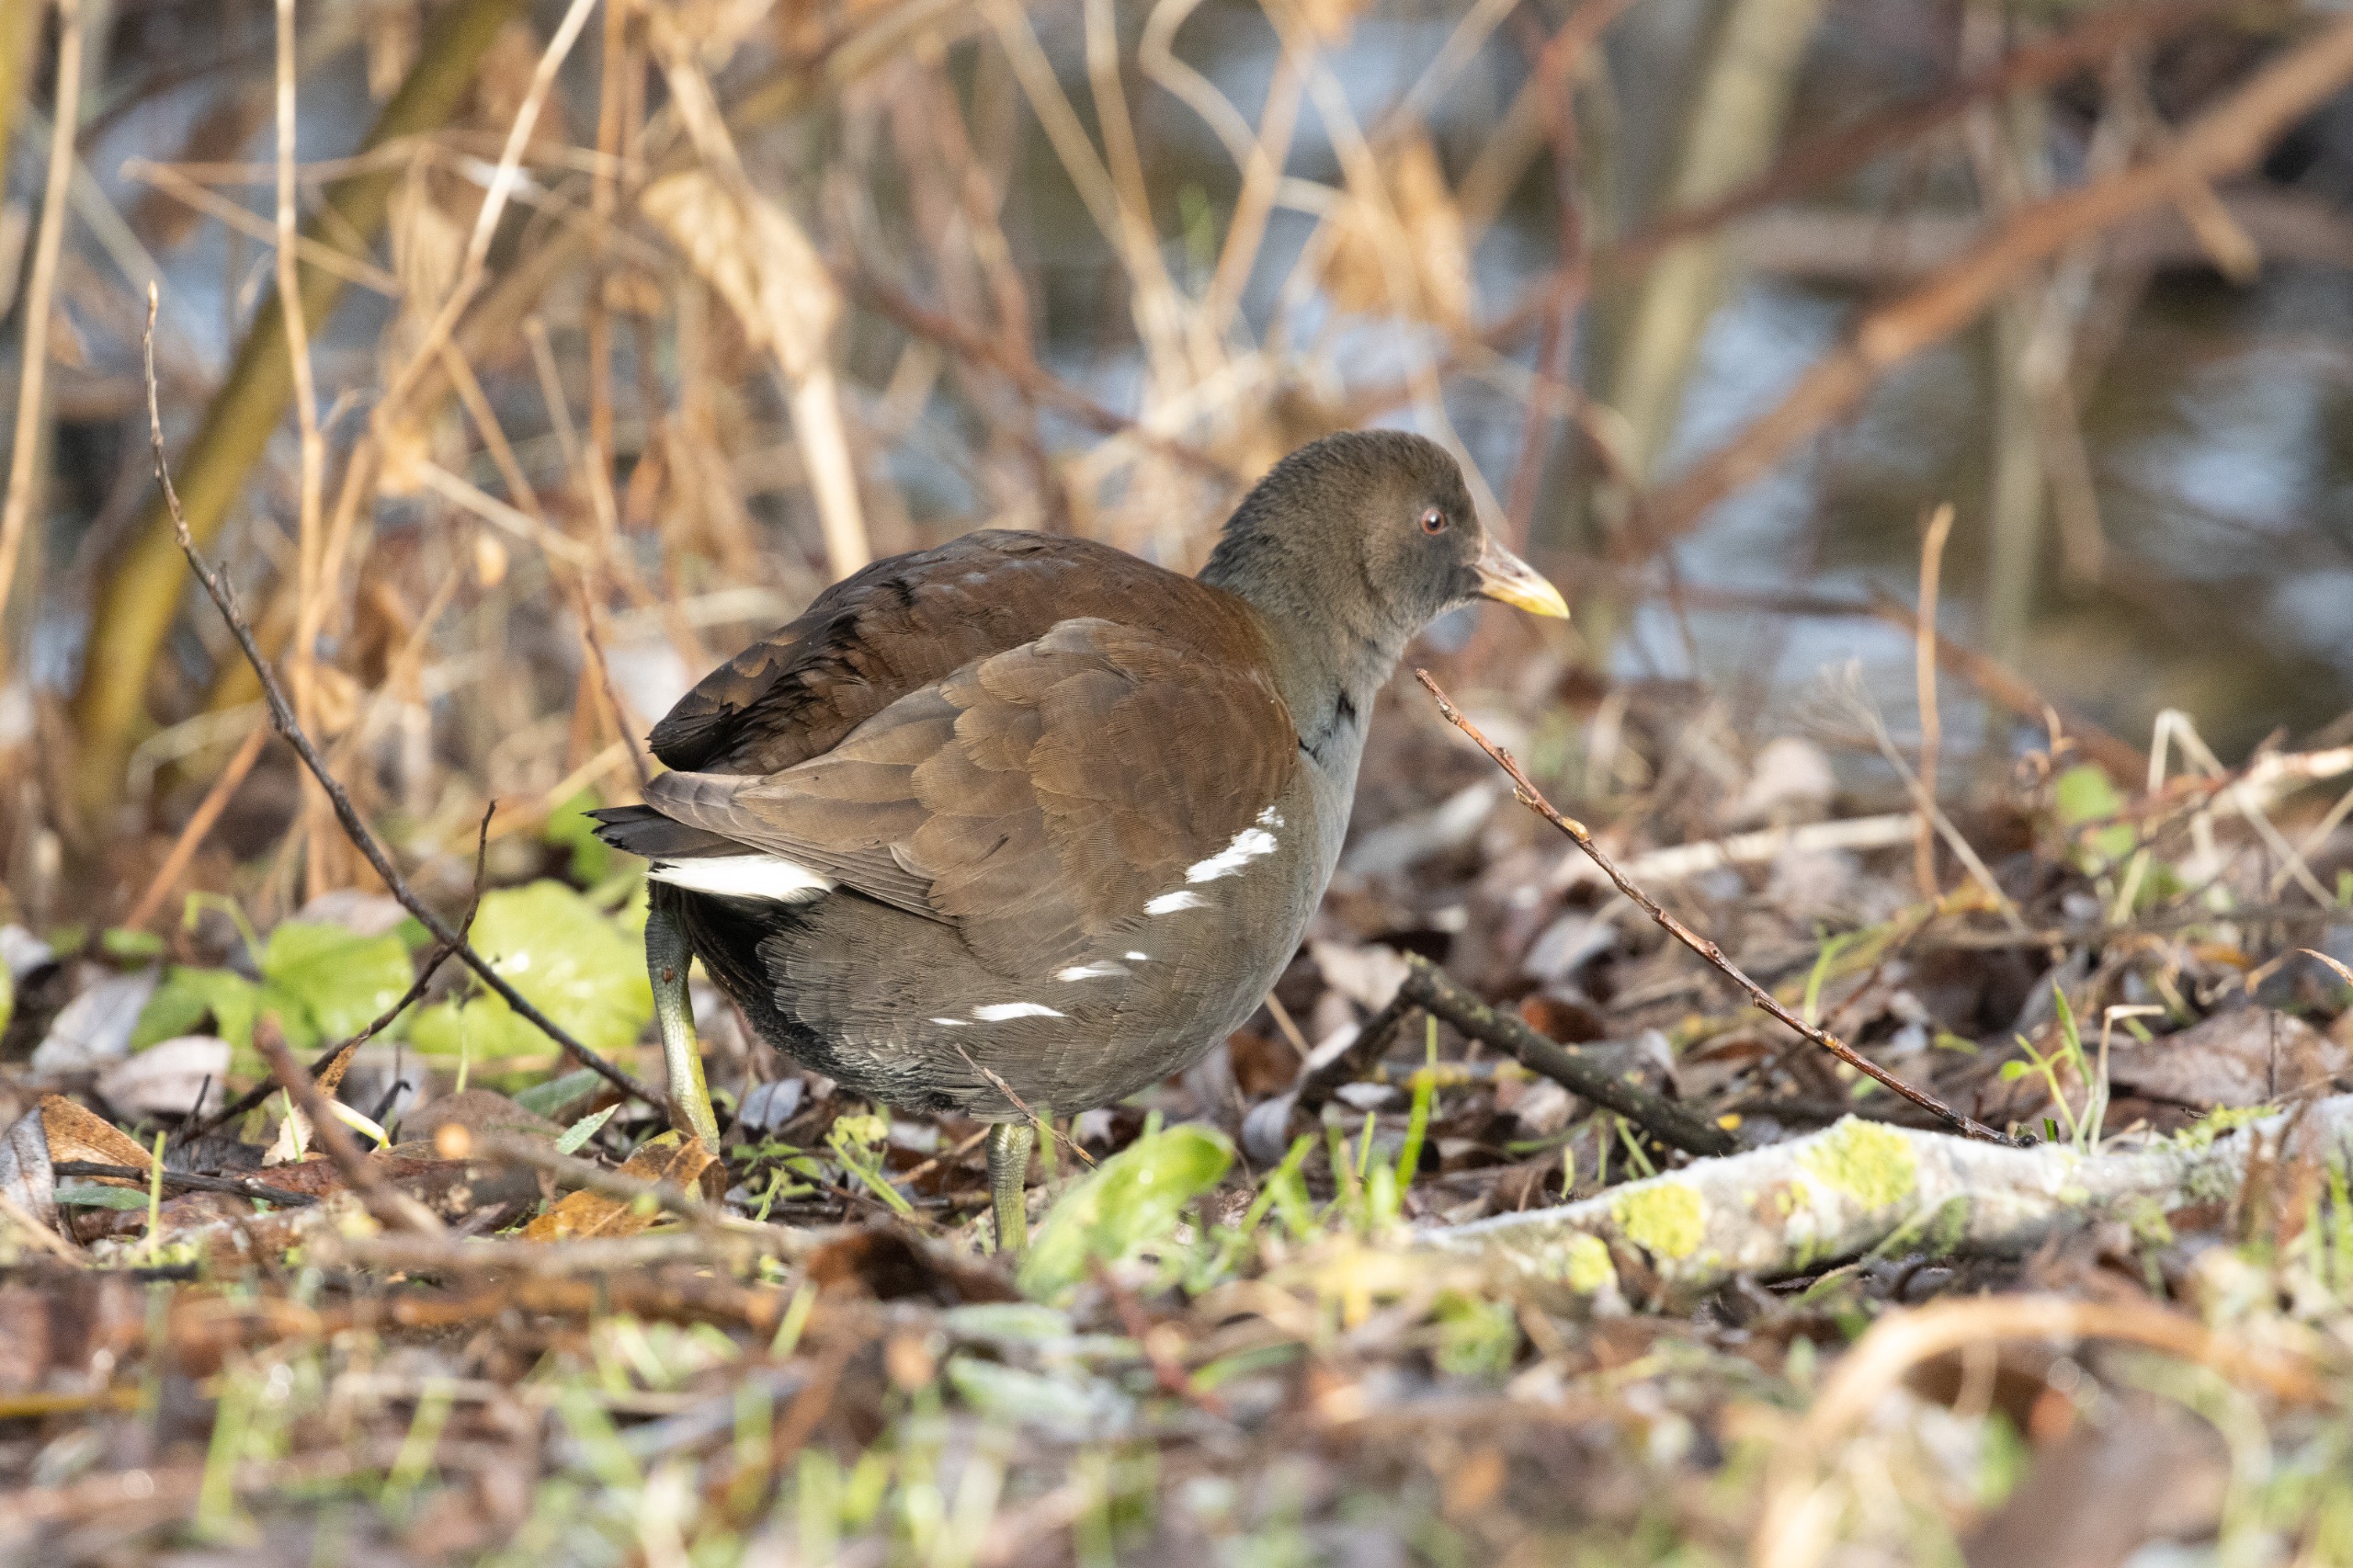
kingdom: Animalia
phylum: Chordata
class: Aves
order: Gruiformes
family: Rallidae
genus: Gallinula
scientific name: Gallinula chloropus
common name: Grønbenet rørhøne
